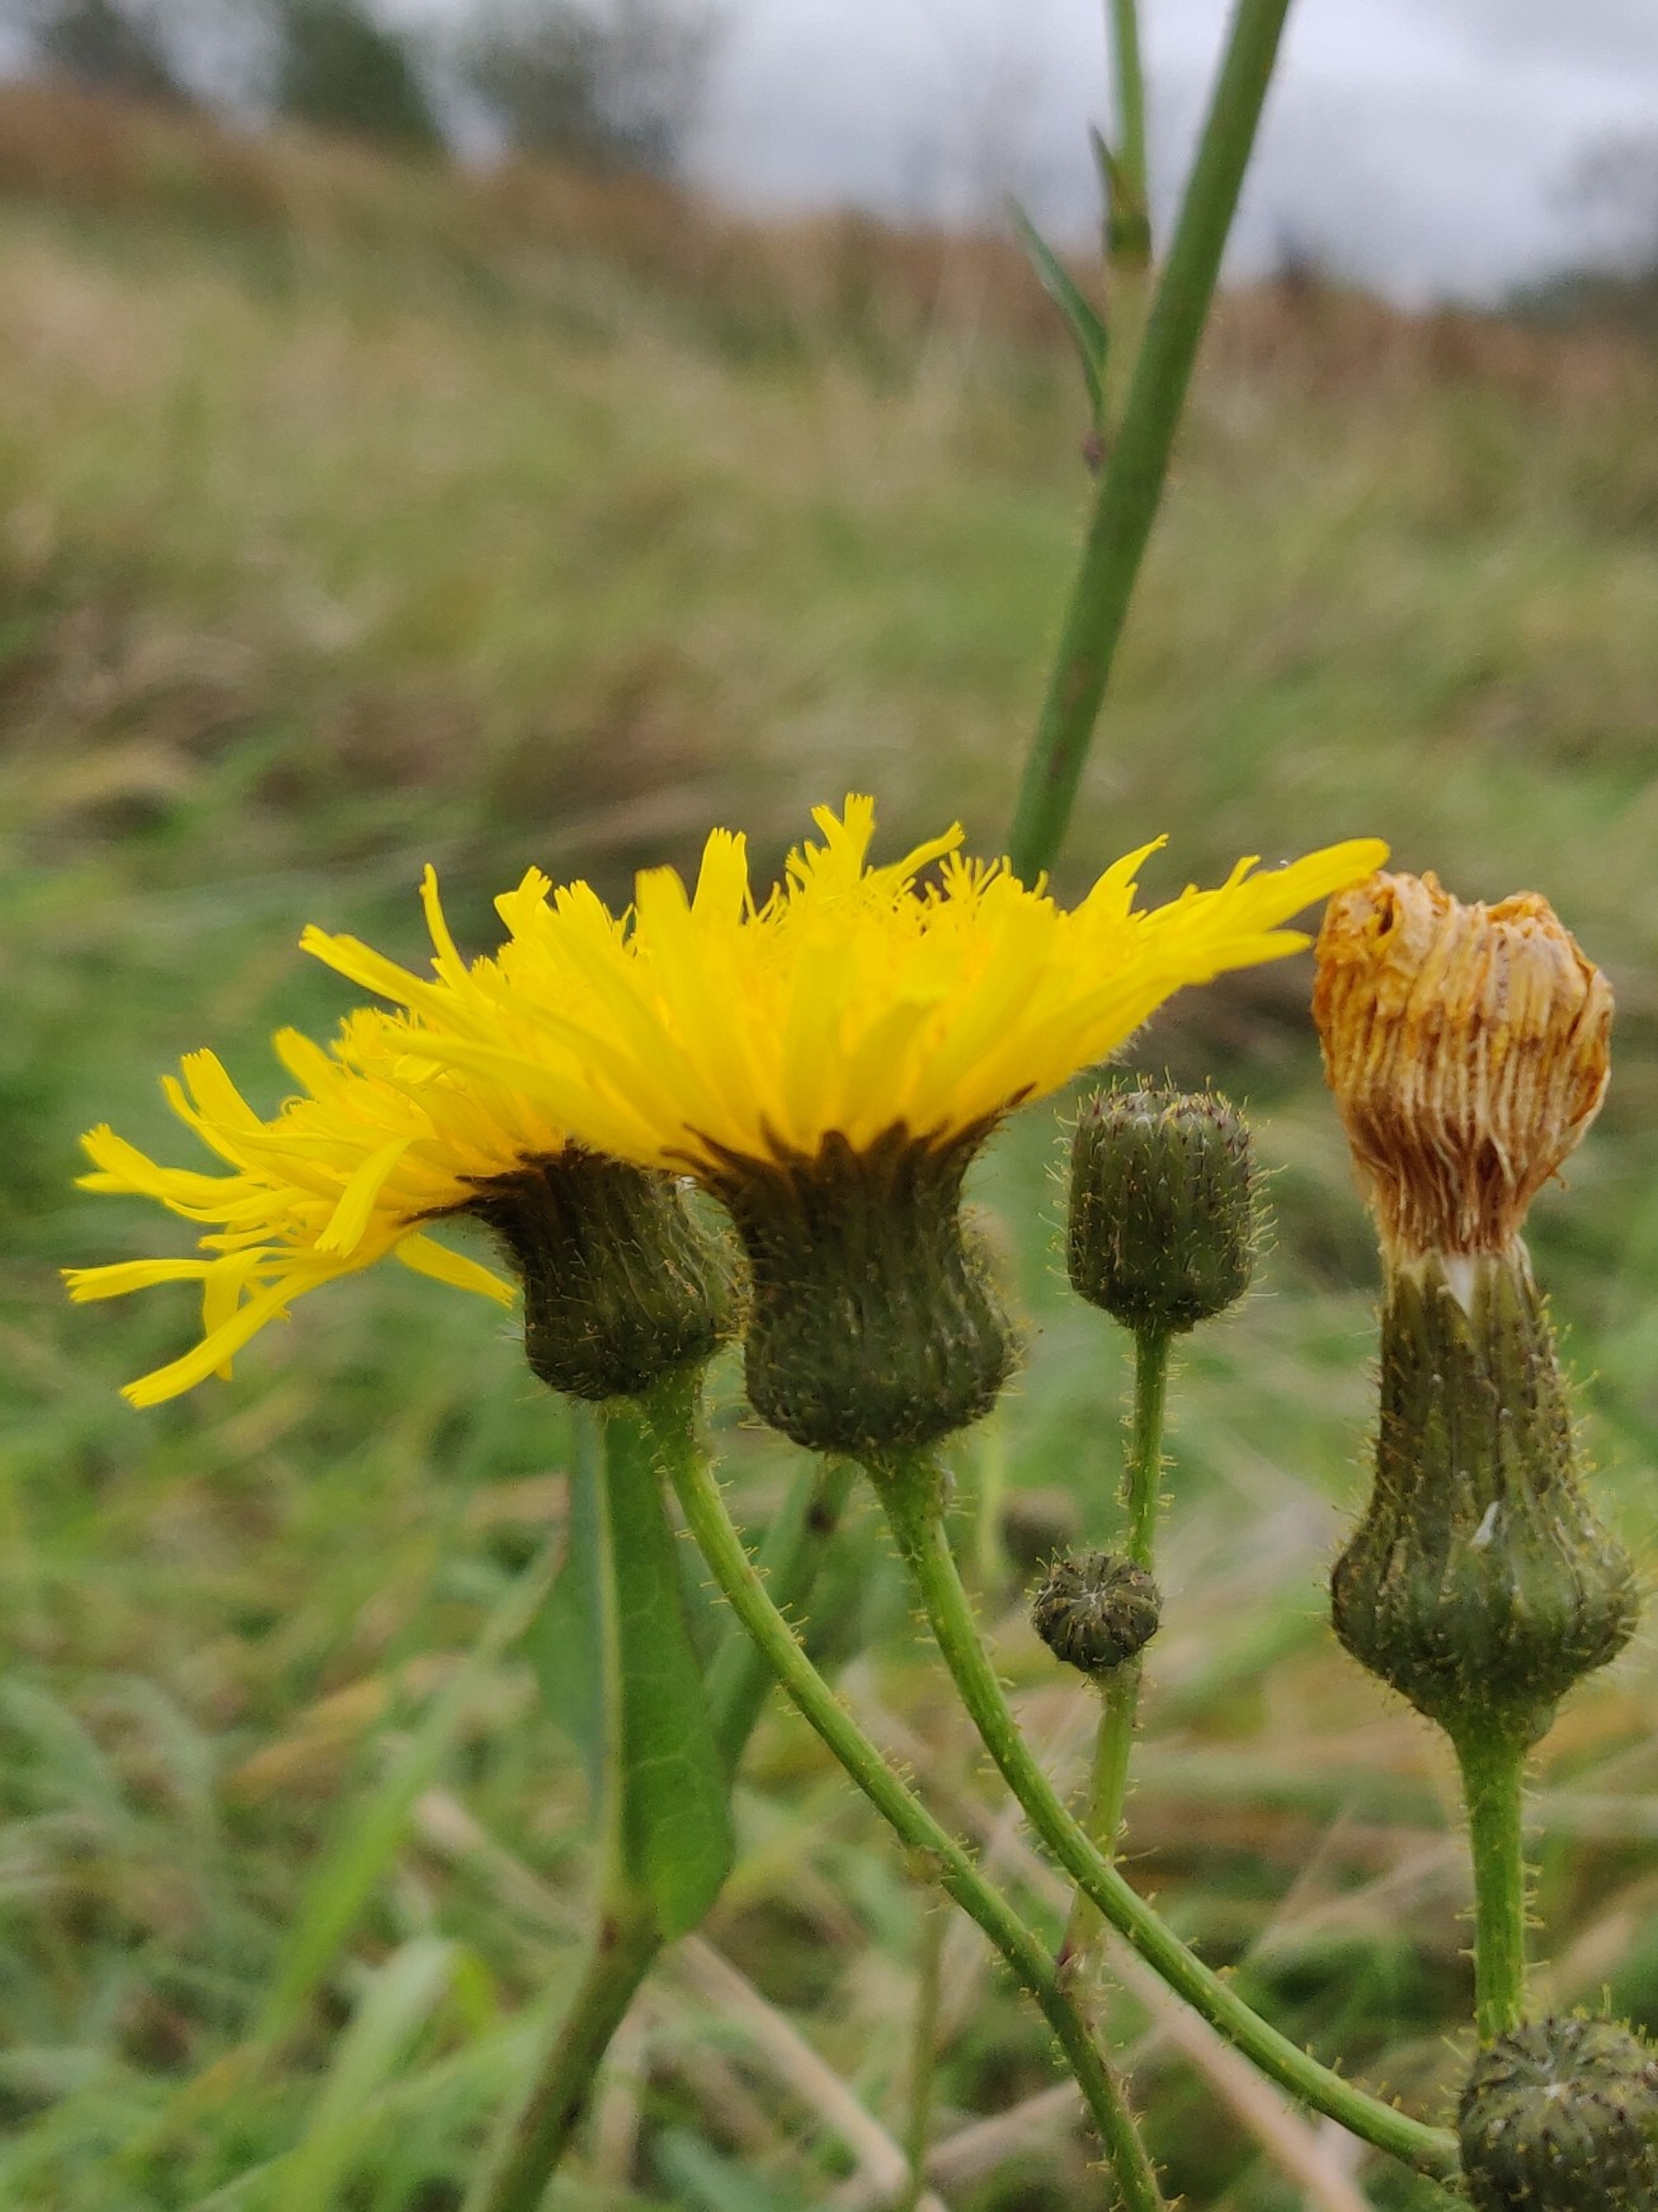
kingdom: Plantae
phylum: Tracheophyta
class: Magnoliopsida
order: Asterales
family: Asteraceae
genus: Sonchus
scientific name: Sonchus arvensis
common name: Ager-svinemælk
